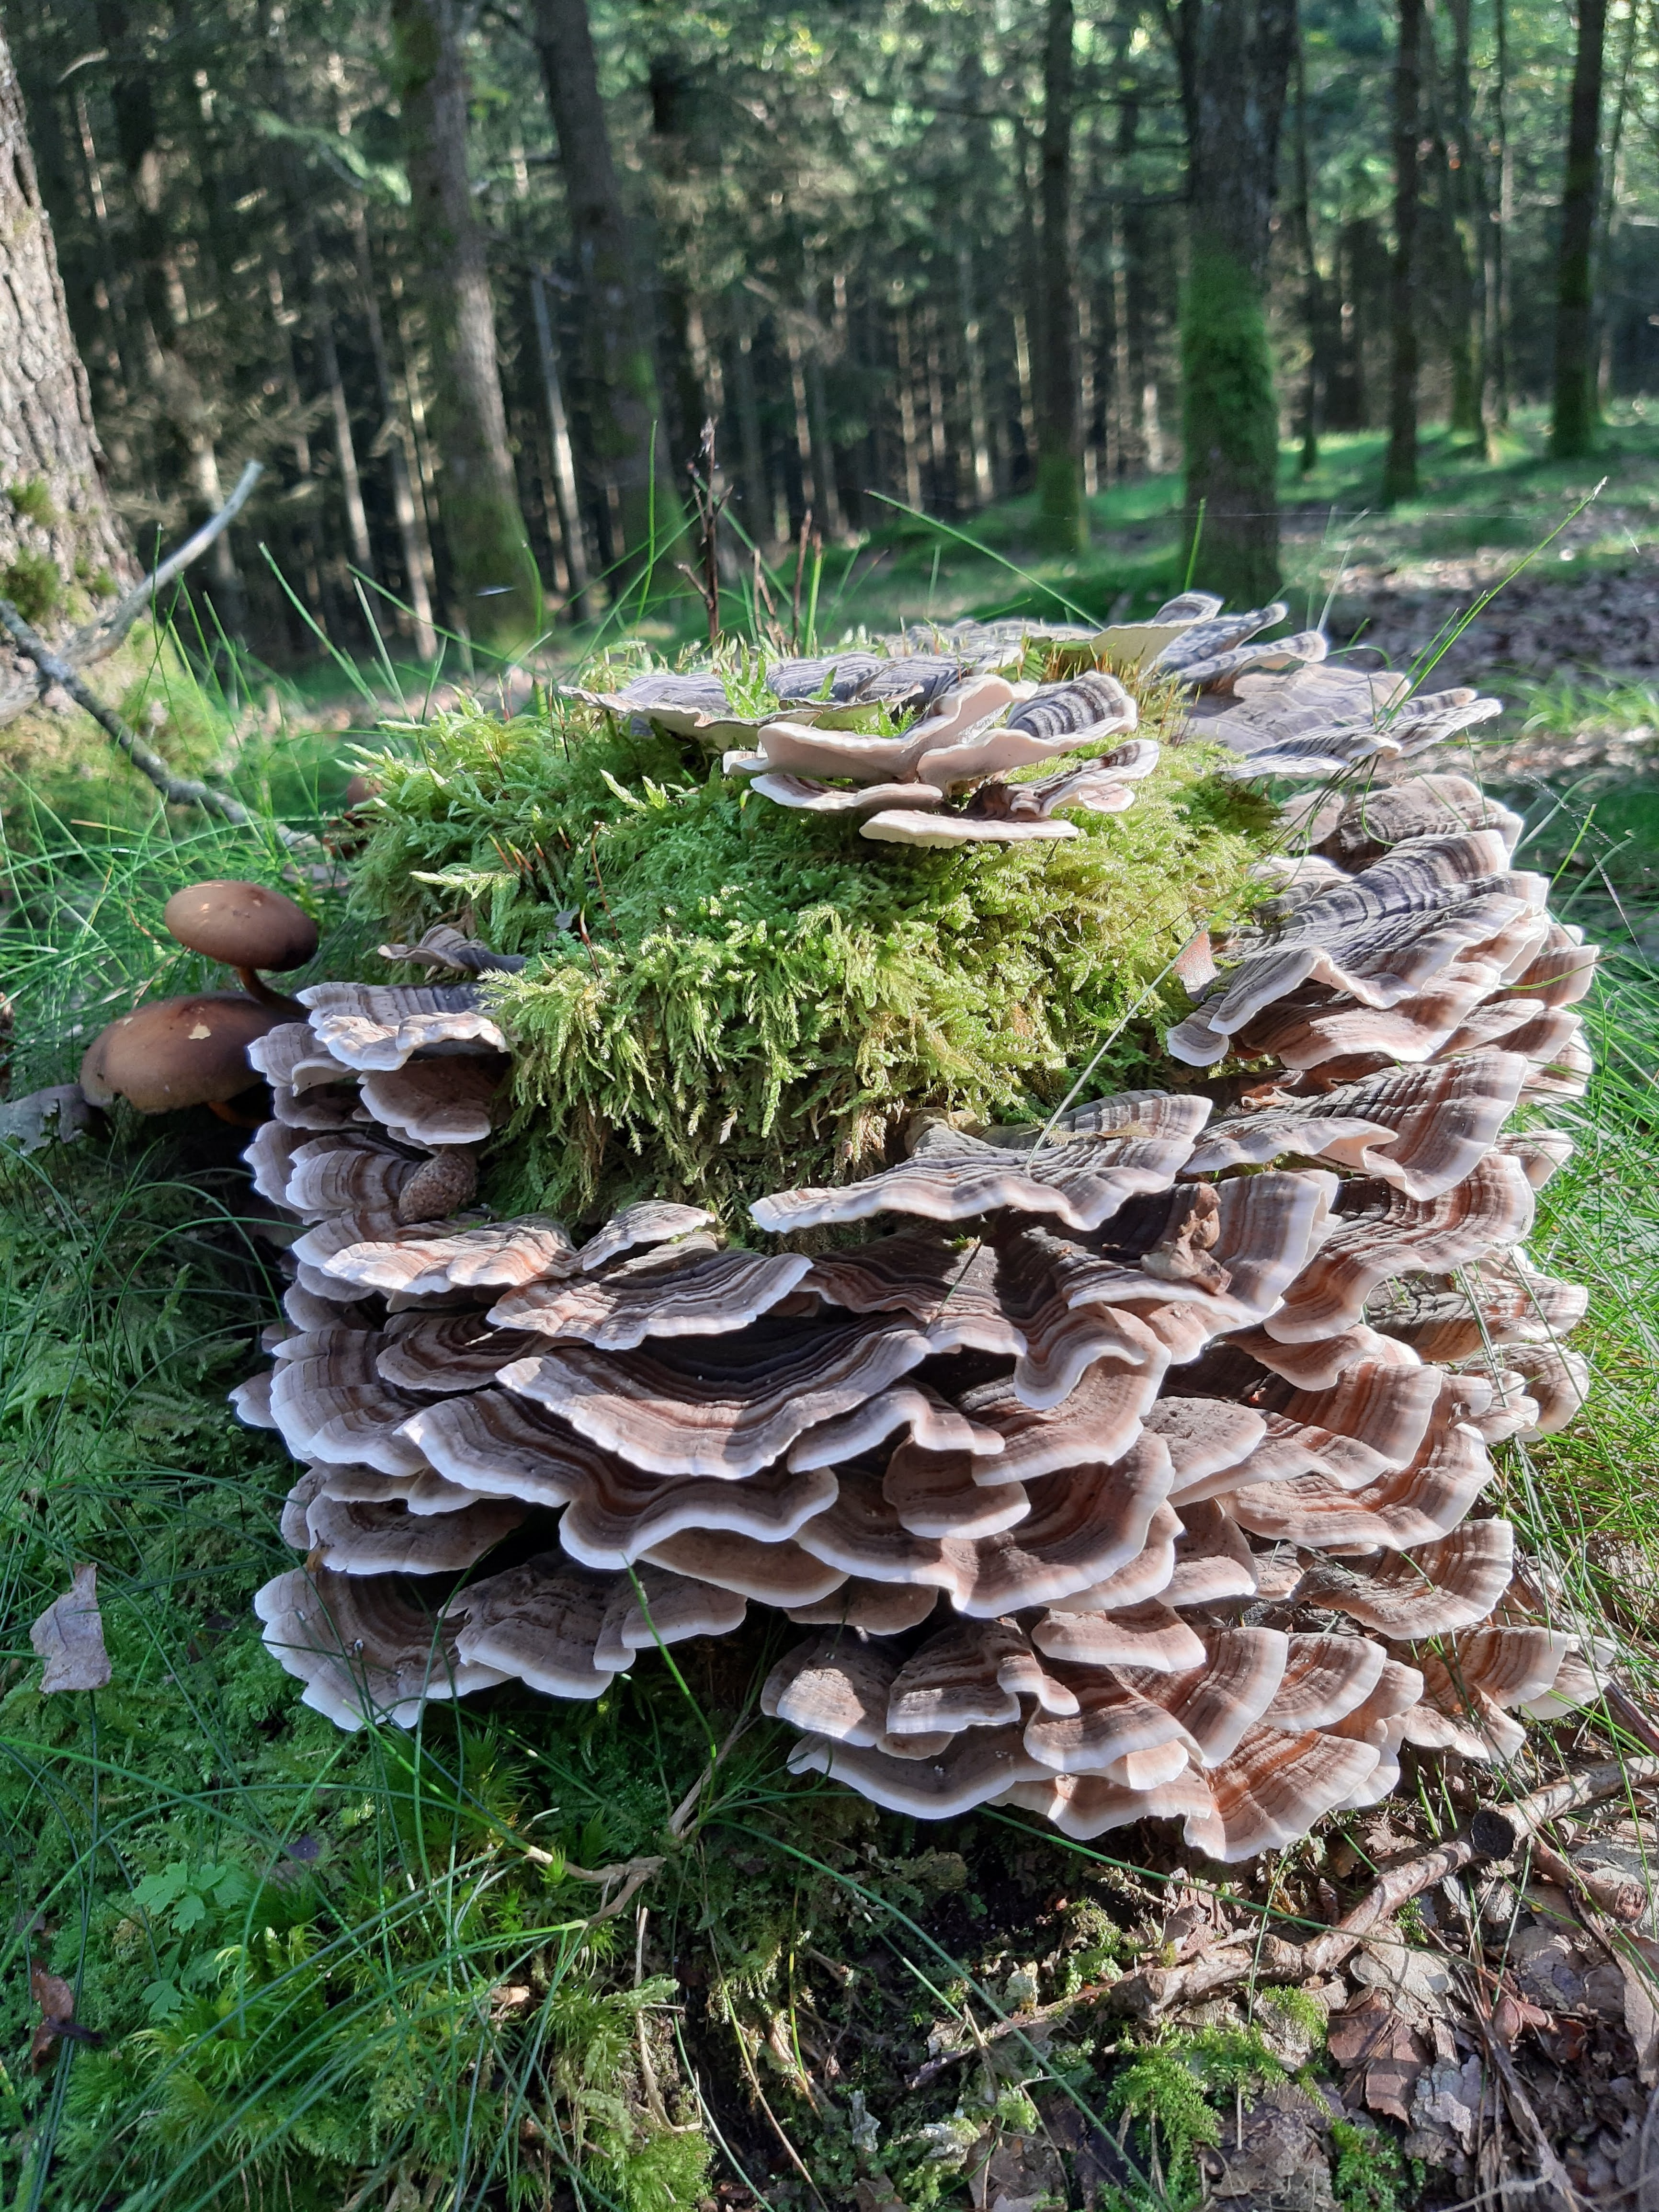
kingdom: Fungi
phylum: Basidiomycota
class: Agaricomycetes
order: Polyporales
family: Polyporaceae
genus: Trametes
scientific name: Trametes versicolor
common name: broget læderporesvamp
